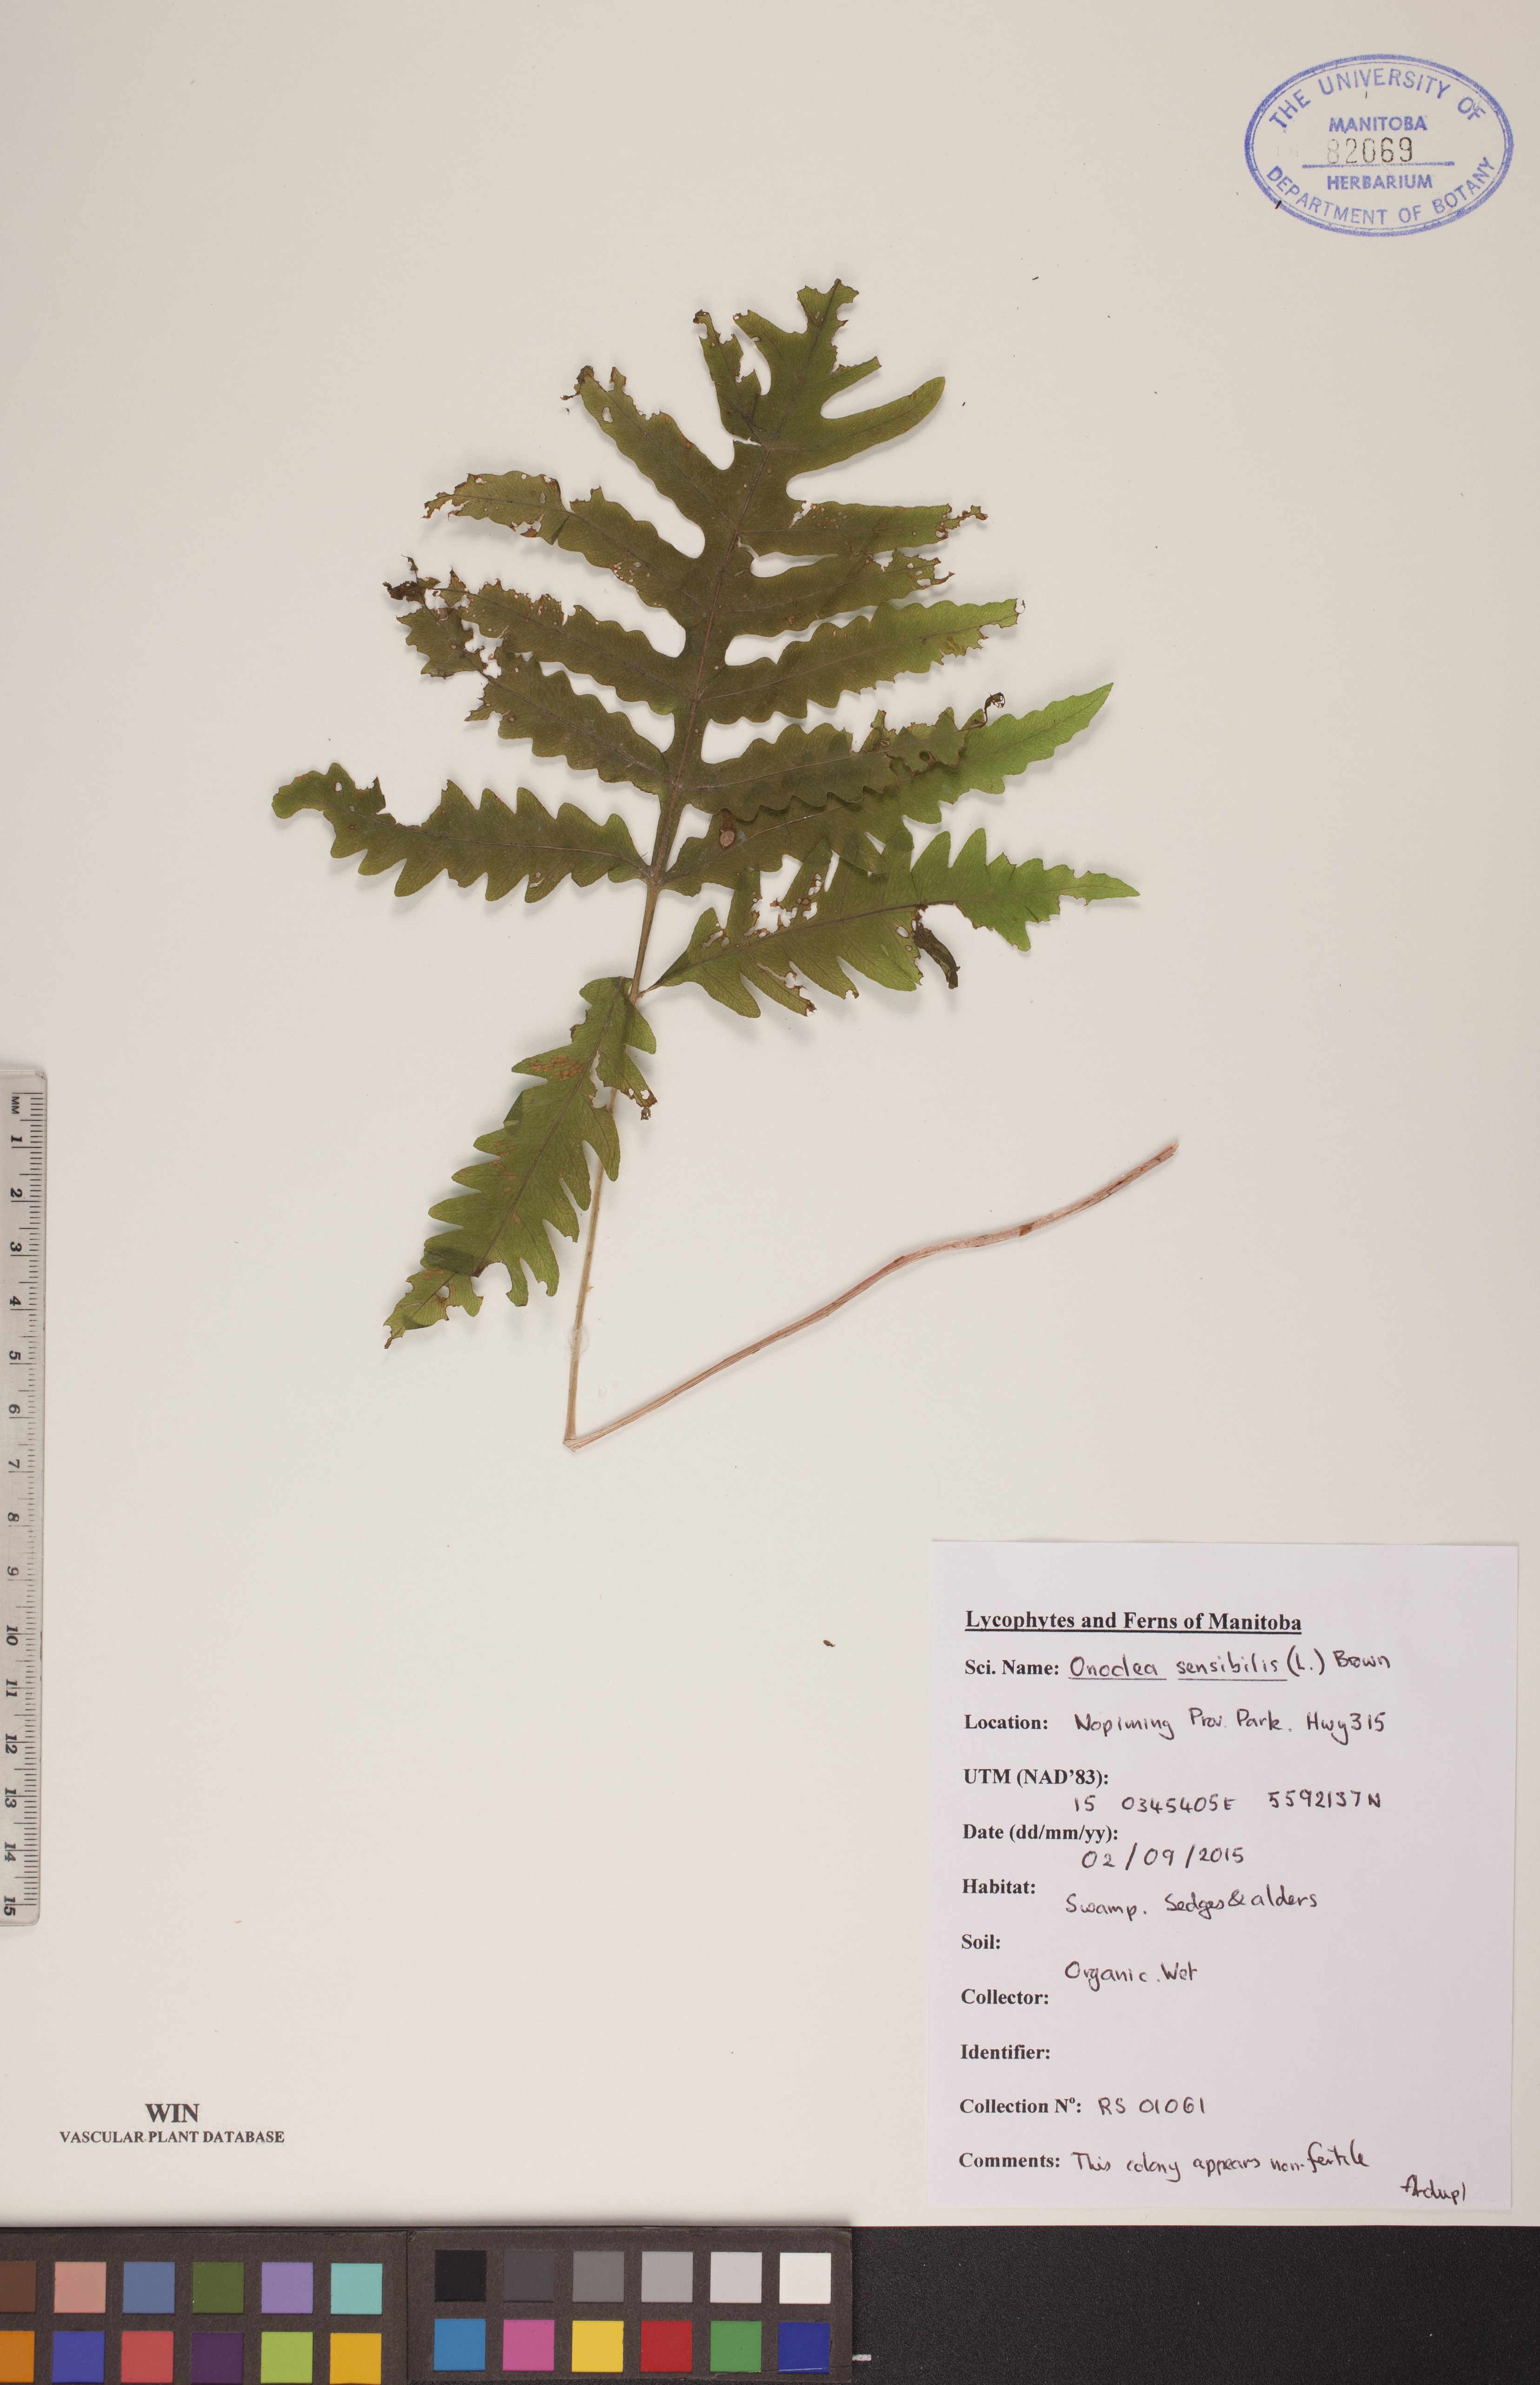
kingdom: Plantae
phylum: Tracheophyta
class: Polypodiopsida
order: Polypodiales
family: Onocleaceae
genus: Onoclea
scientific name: Onoclea sensibilis
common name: Sensitive fern
